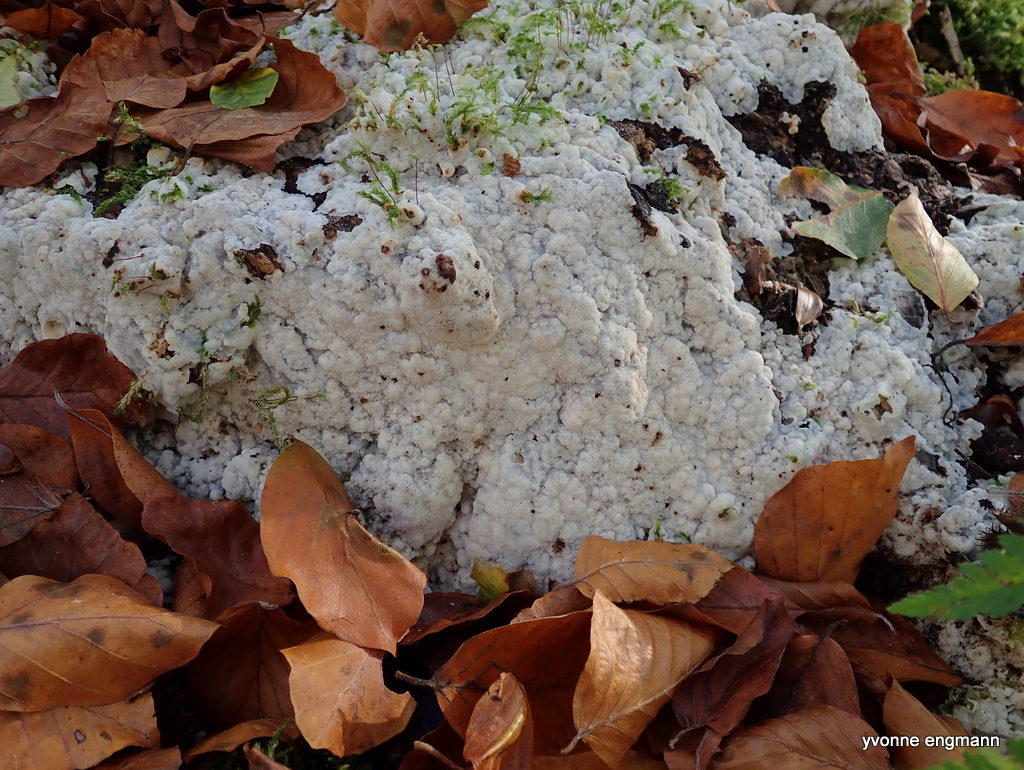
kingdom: Fungi
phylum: Basidiomycota
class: Agaricomycetes
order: Polyporales
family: Meruliaceae
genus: Physisporinus
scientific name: Physisporinus vitreus
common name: mastesvamp
